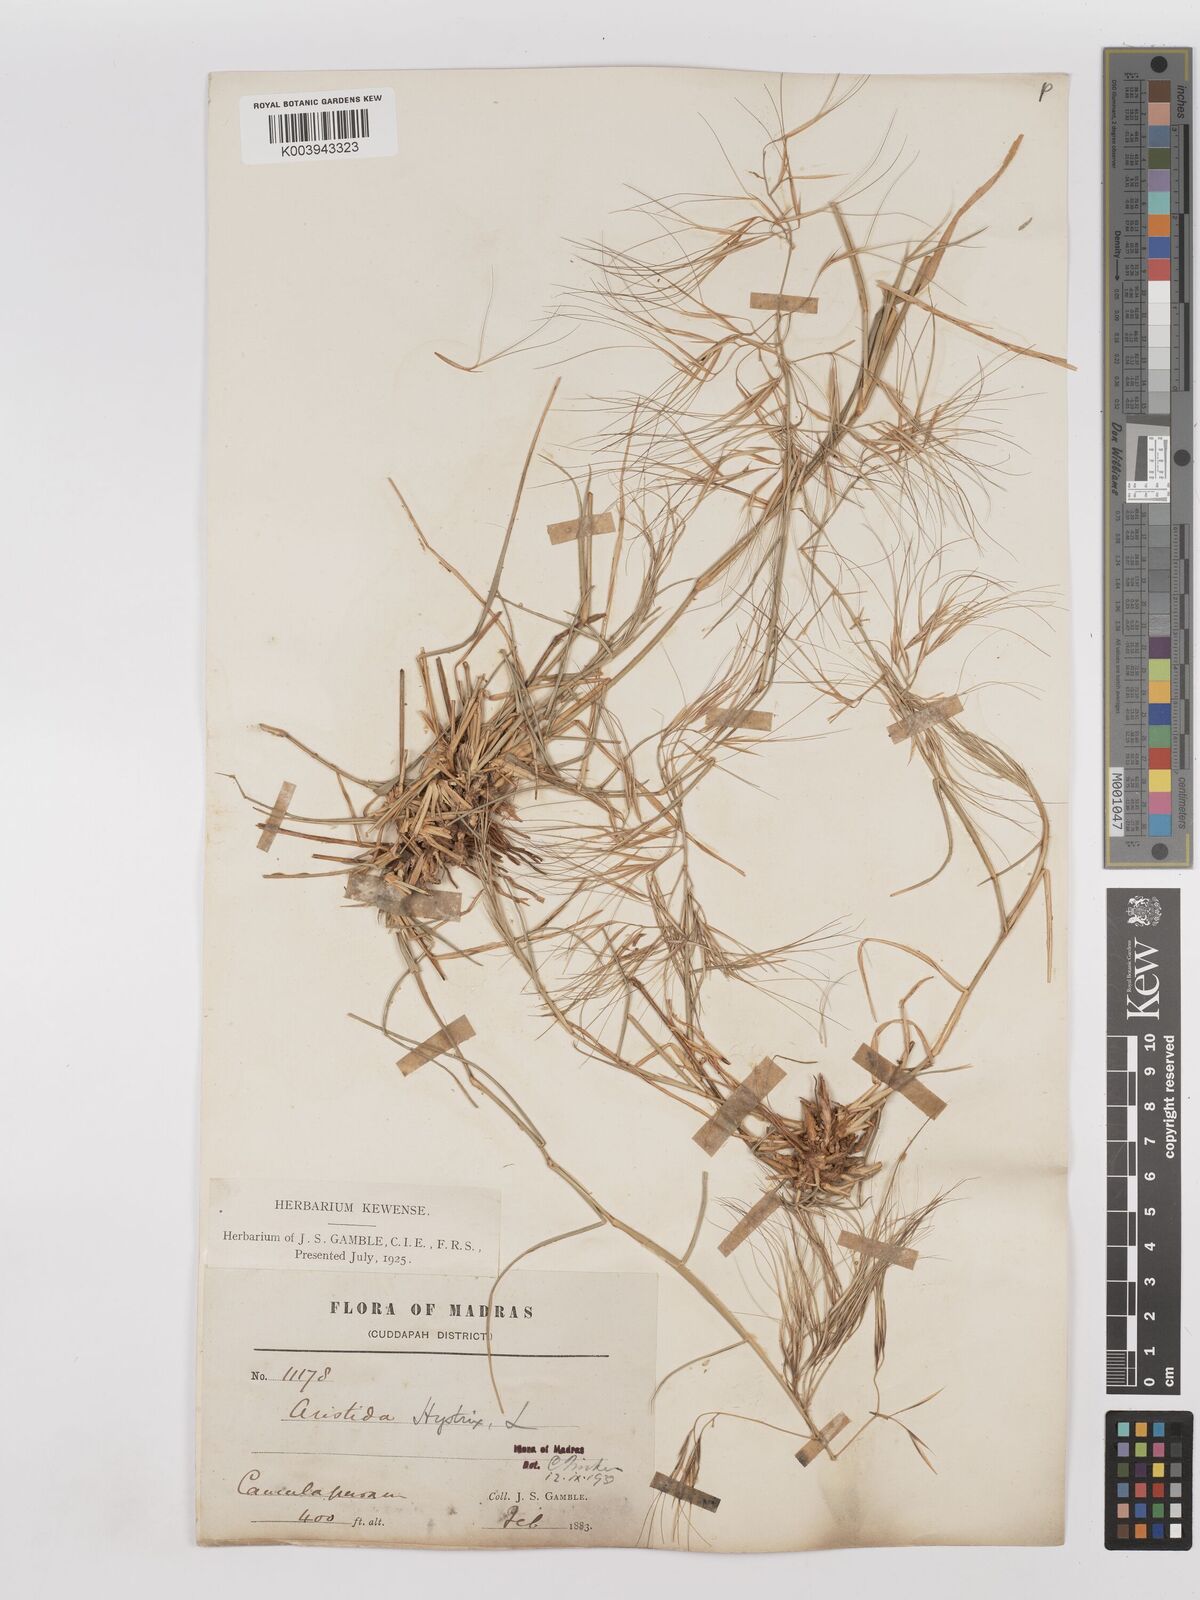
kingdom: Plantae
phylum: Tracheophyta
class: Liliopsida
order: Poales
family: Poaceae
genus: Aristida
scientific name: Aristida hystrix
